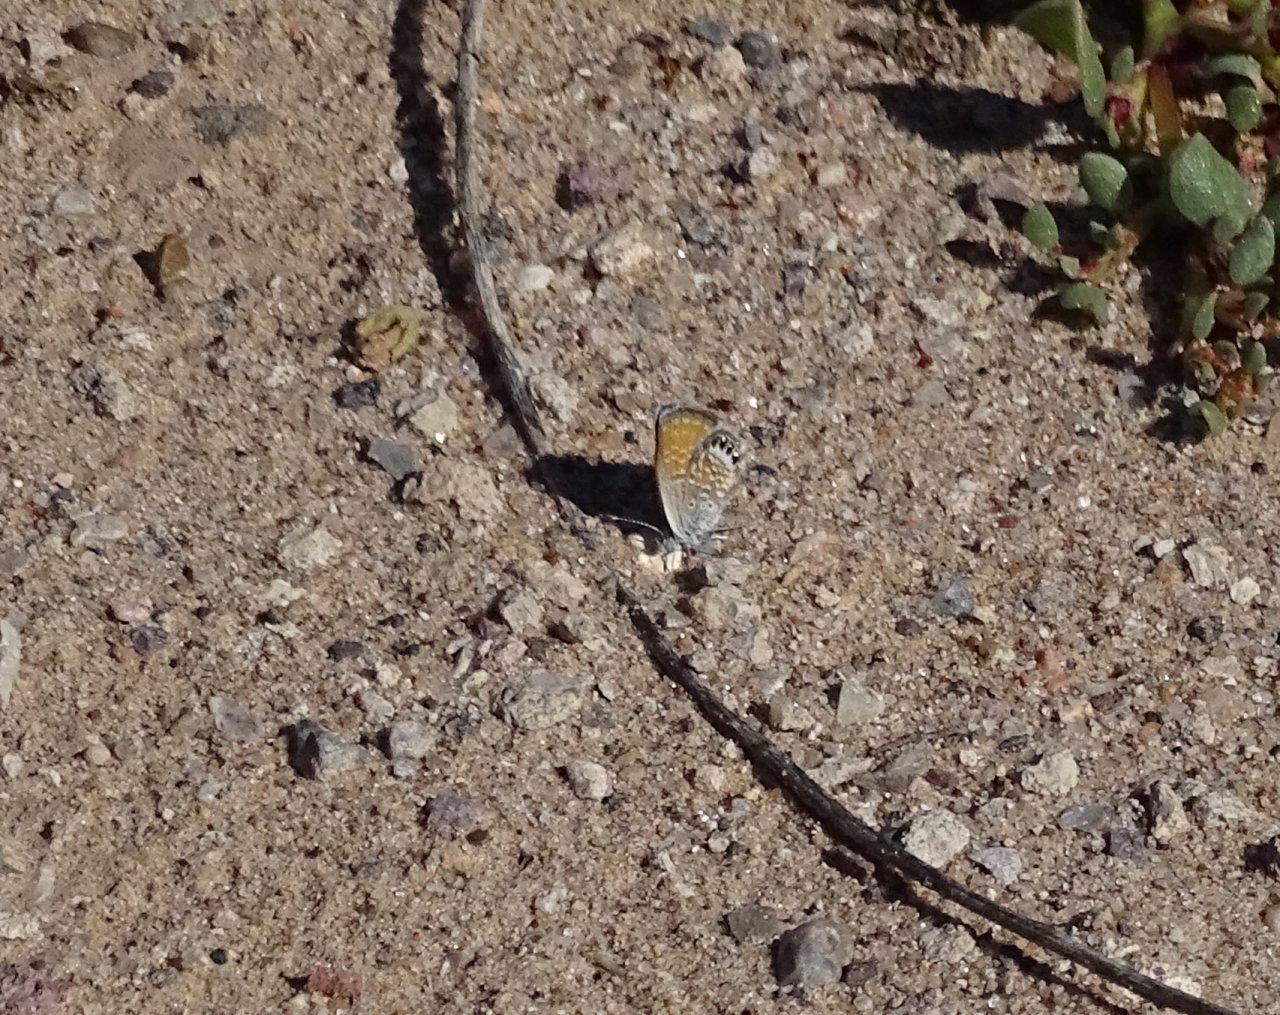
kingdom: Animalia
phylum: Arthropoda
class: Insecta
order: Lepidoptera
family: Lycaenidae
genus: Brephidium
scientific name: Brephidium exilis
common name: Western Pygmy-Blue
